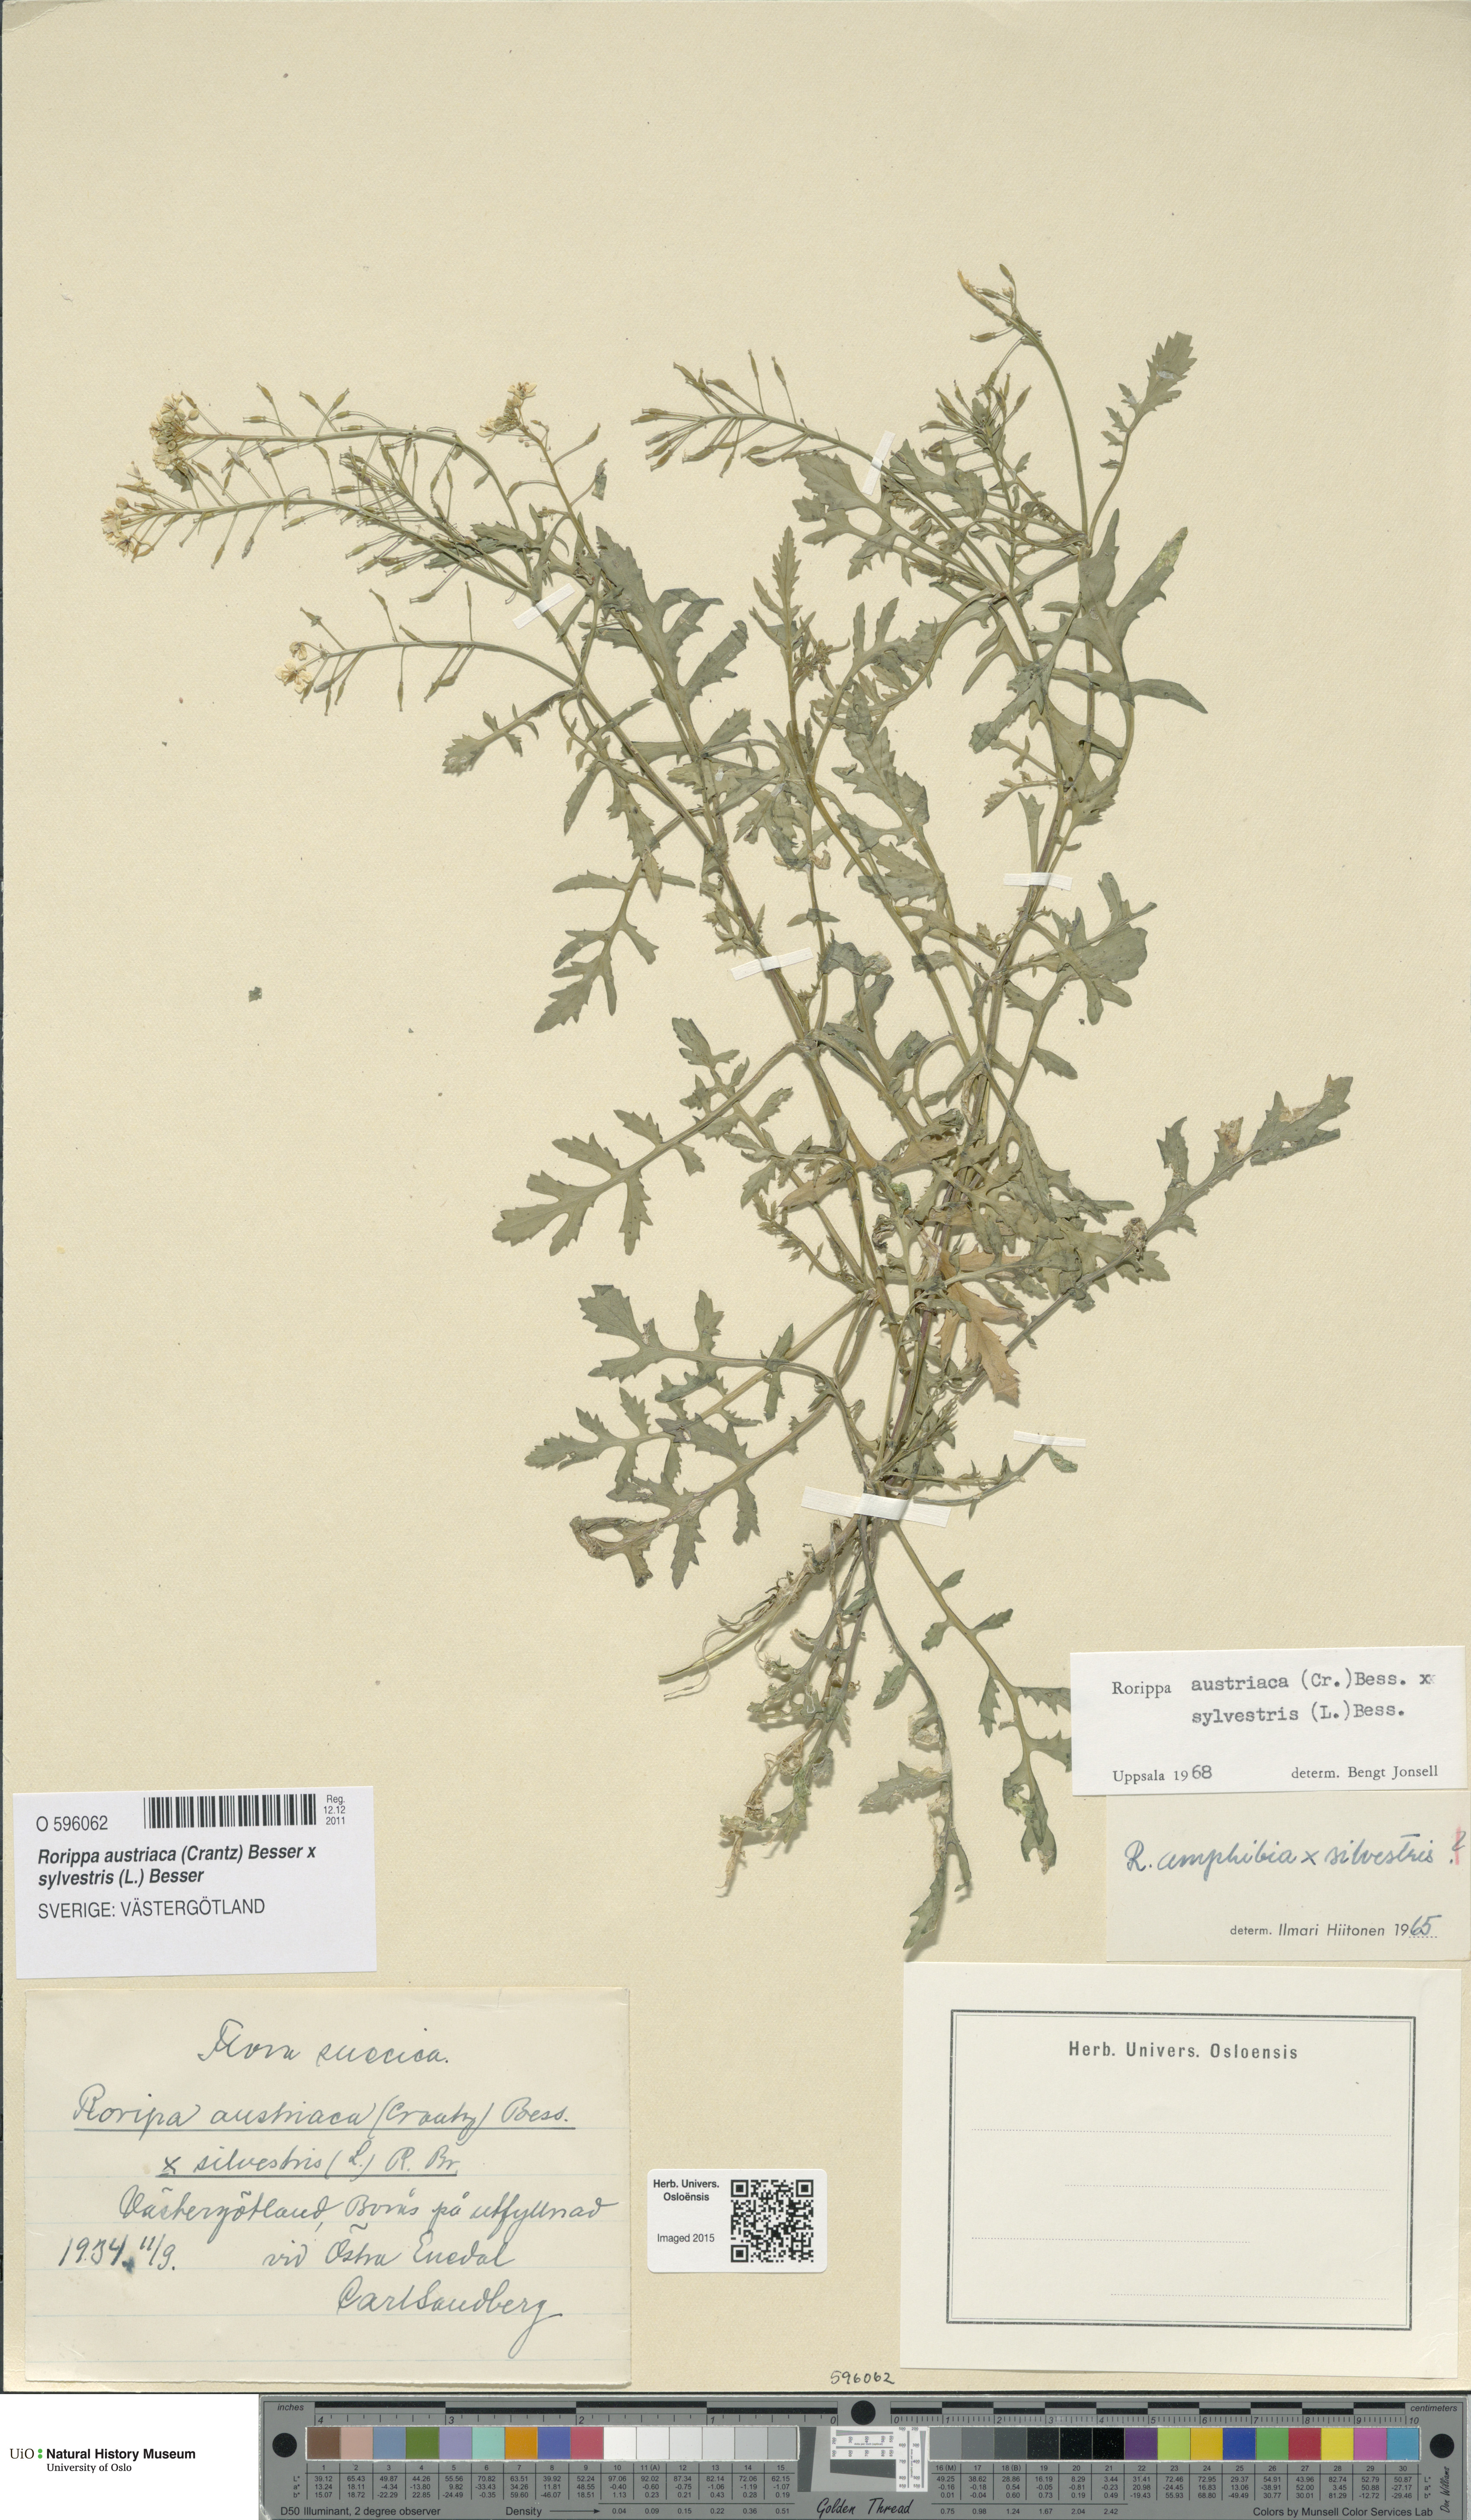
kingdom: Plantae
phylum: Tracheophyta
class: Magnoliopsida
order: Brassicales
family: Brassicaceae
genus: Rorippa
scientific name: Rorippa
